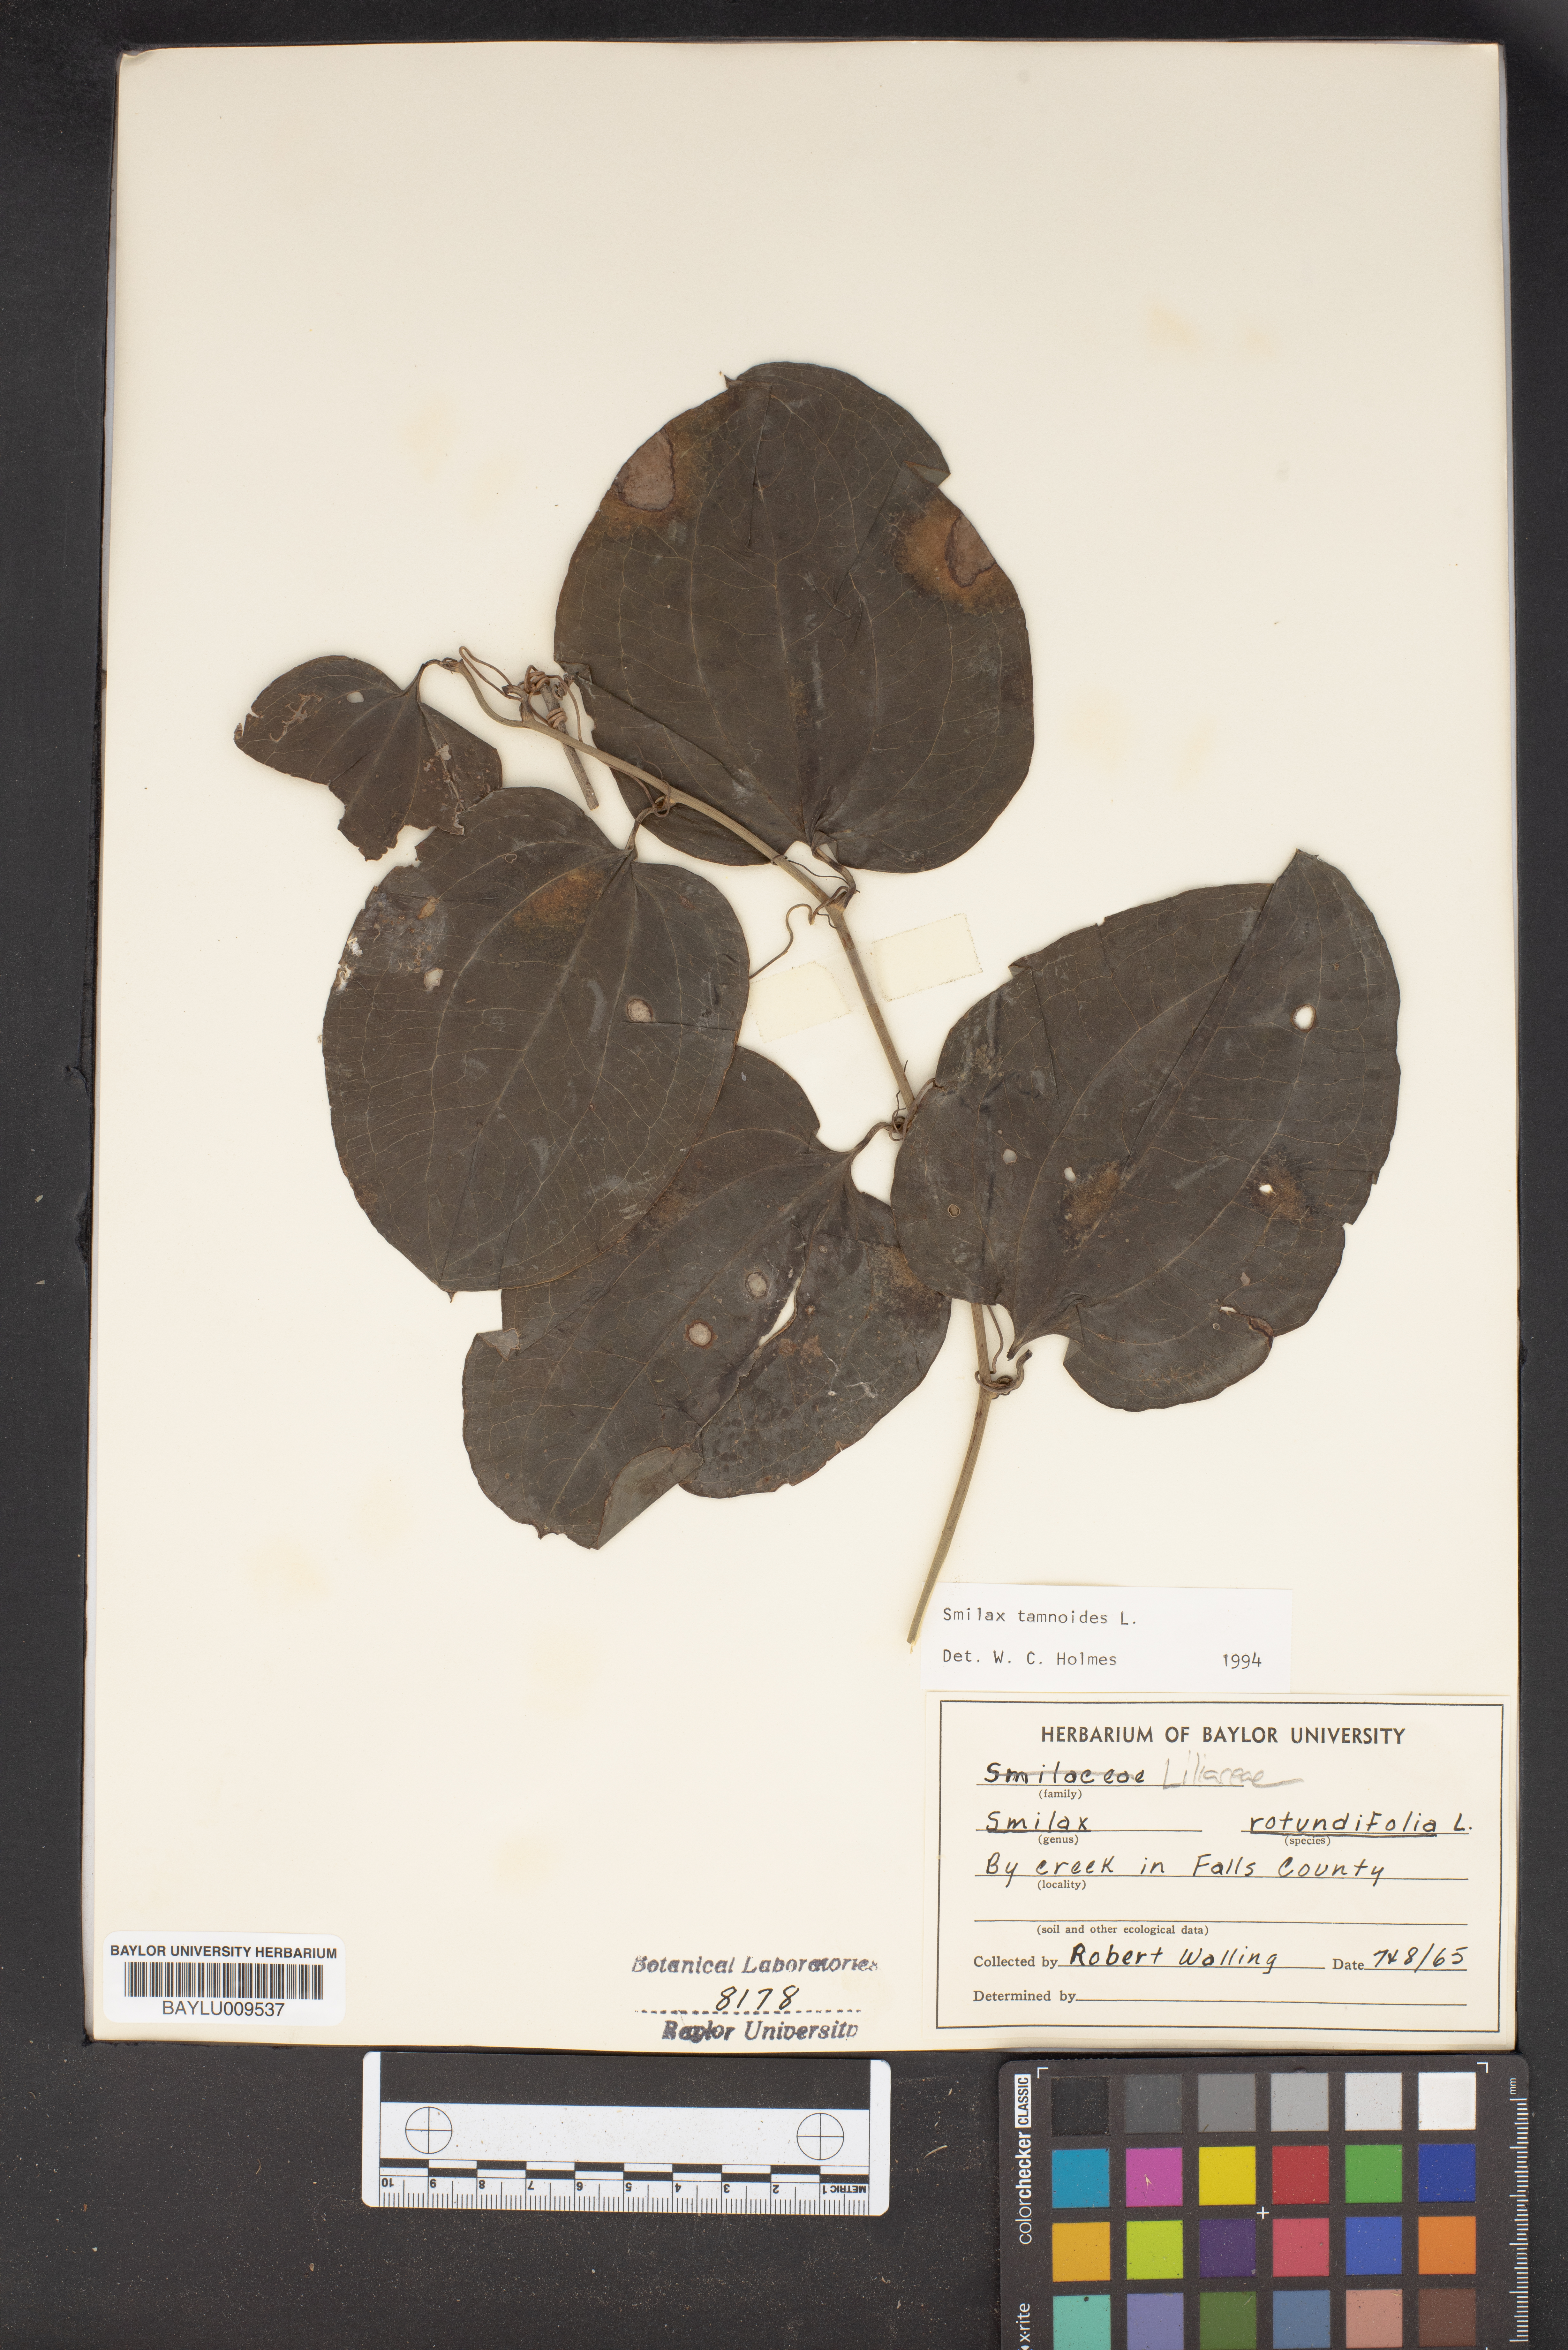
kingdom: Plantae
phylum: Tracheophyta
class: Liliopsida
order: Liliales
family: Smilacaceae
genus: Smilax
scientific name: Smilax tamnoides
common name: Hellfetter
